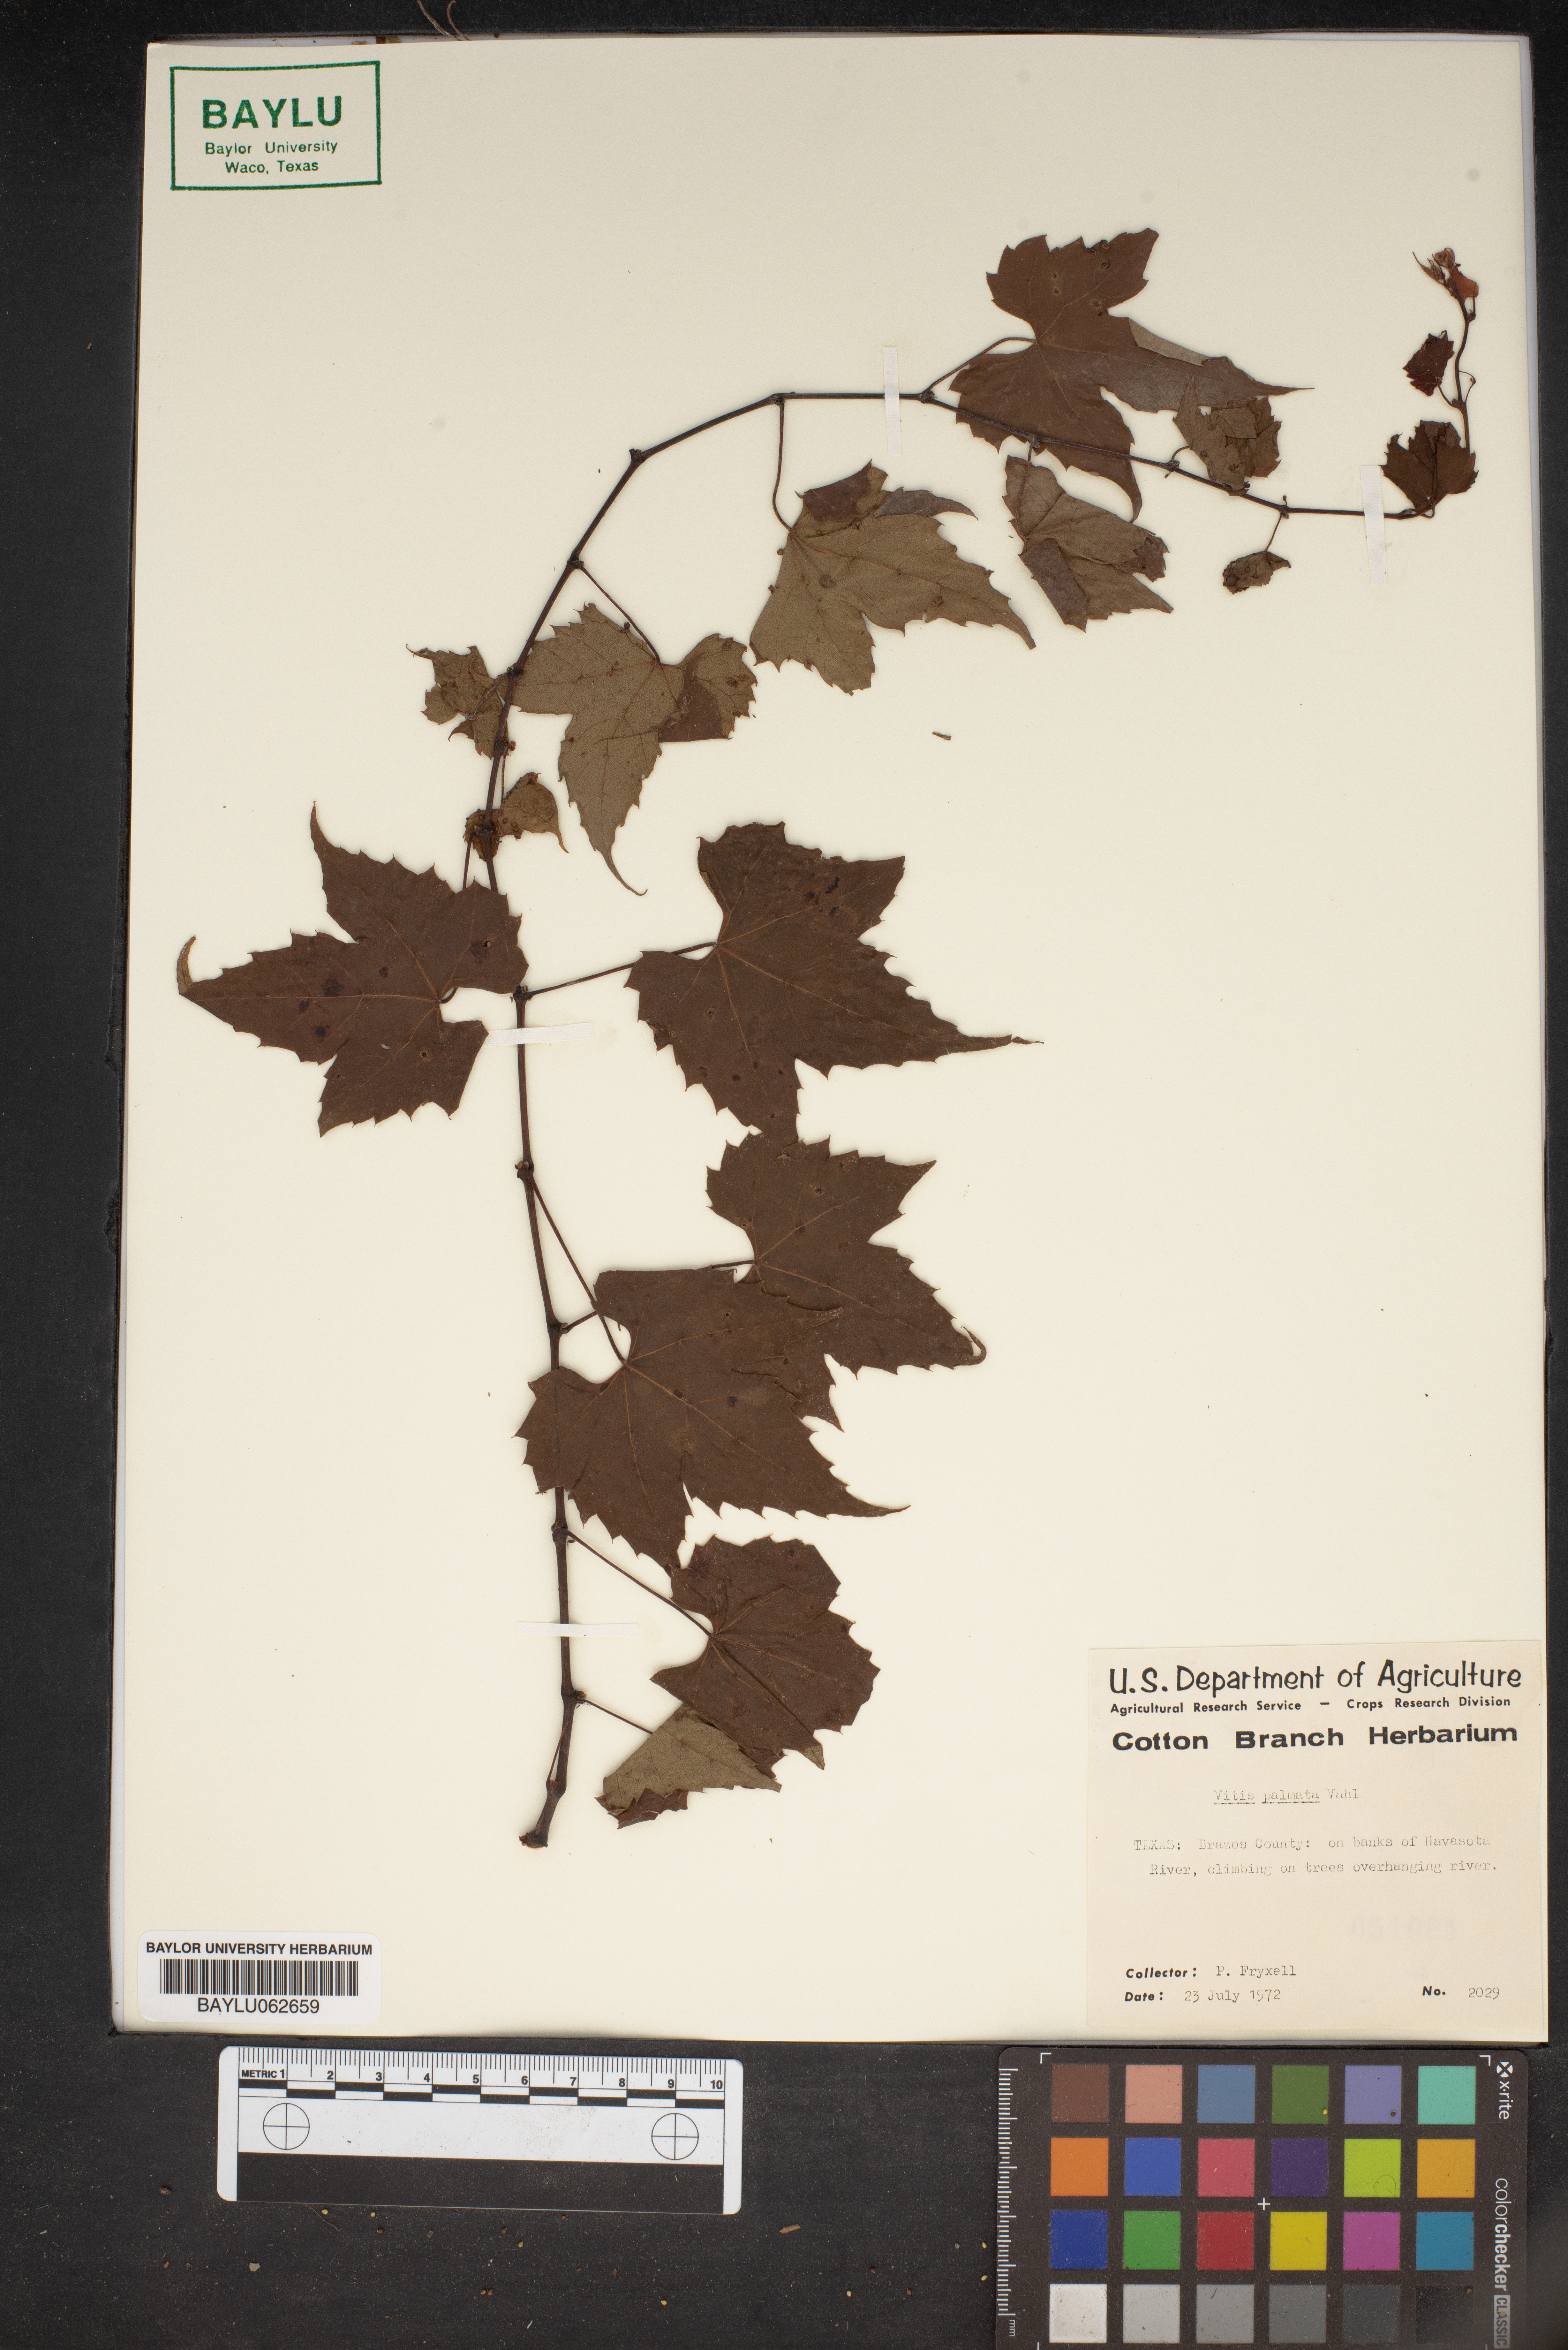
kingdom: Plantae
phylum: Tracheophyta
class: Magnoliopsida
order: Vitales
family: Vitaceae
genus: Vitis
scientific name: Vitis palmata
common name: Catbird grape
